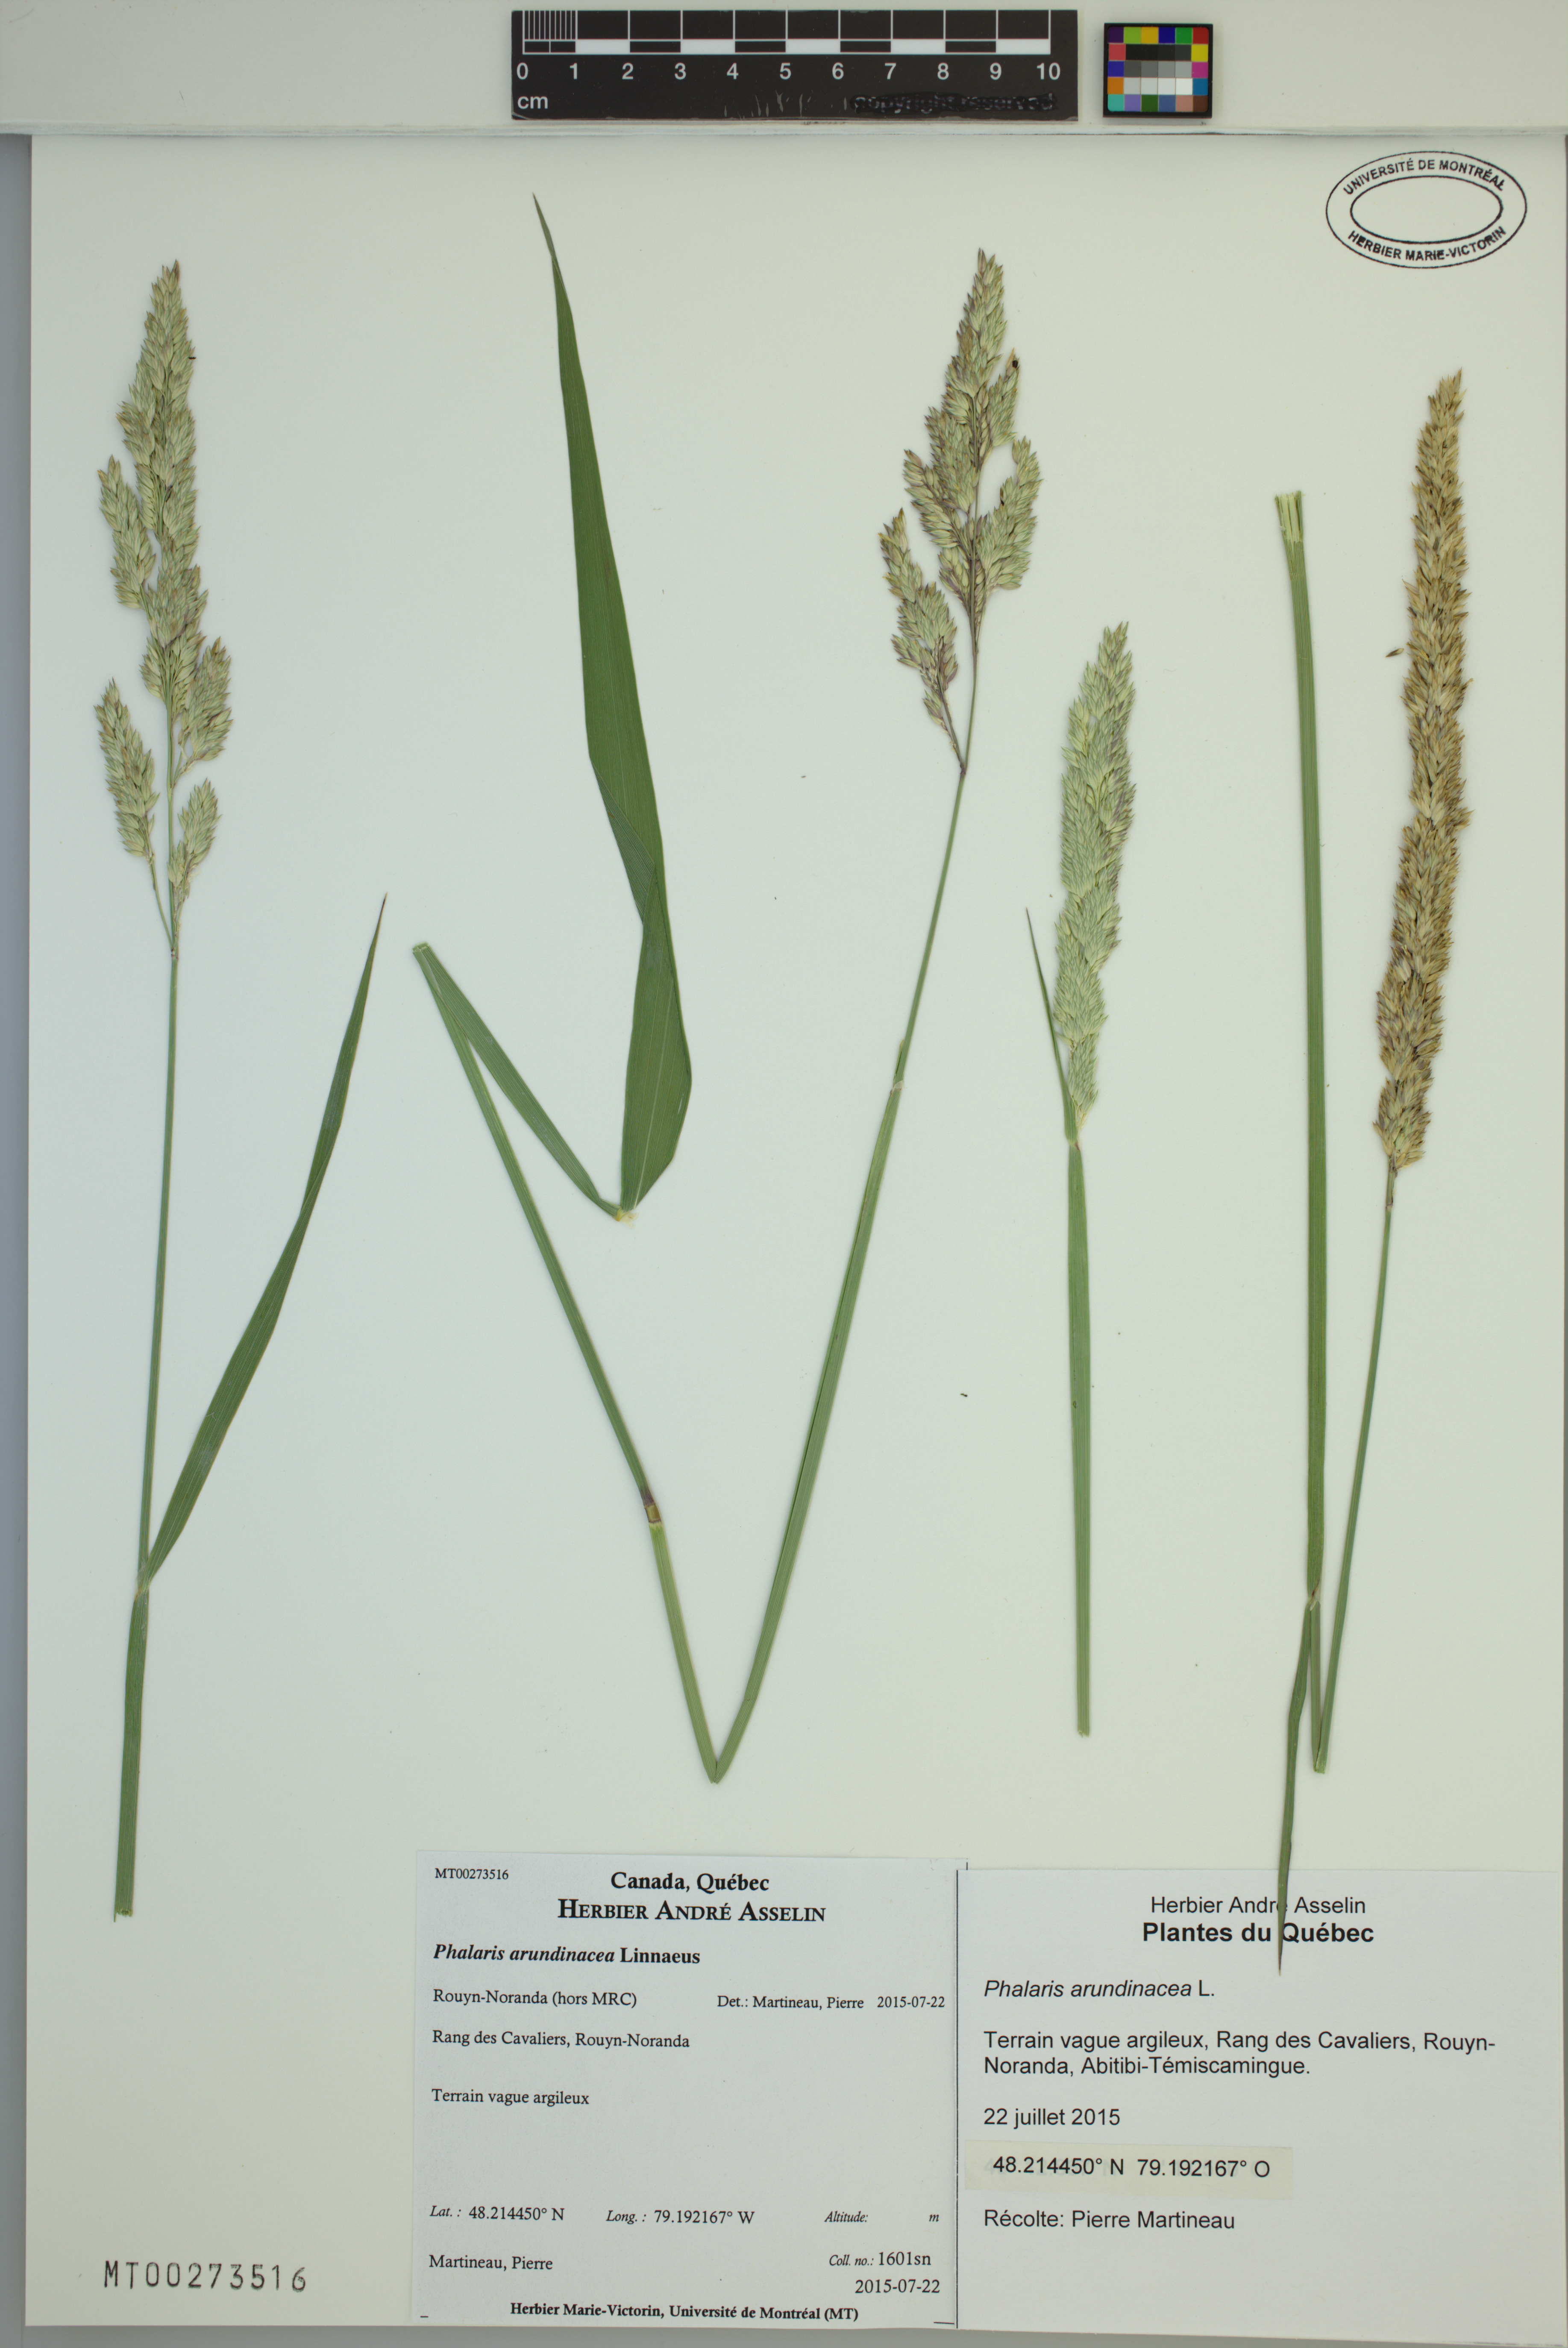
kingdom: Plantae
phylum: Tracheophyta
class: Liliopsida
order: Poales
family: Poaceae
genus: Phalaris
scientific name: Phalaris arundinacea
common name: Reed canary-grass
